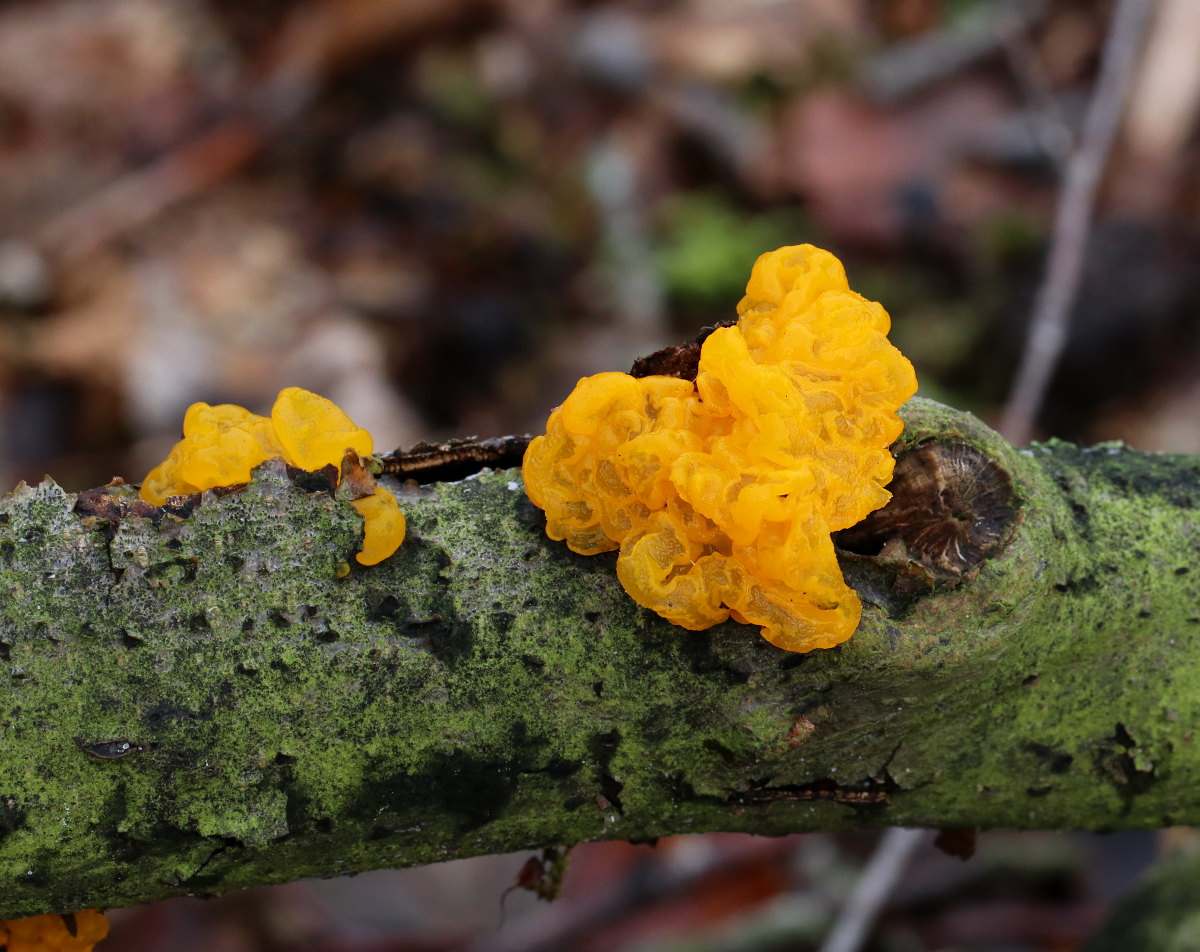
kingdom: Fungi
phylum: Basidiomycota
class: Tremellomycetes
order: Tremellales
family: Tremellaceae
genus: Tremella
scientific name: Tremella mesenterica
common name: gul bævresvamp
